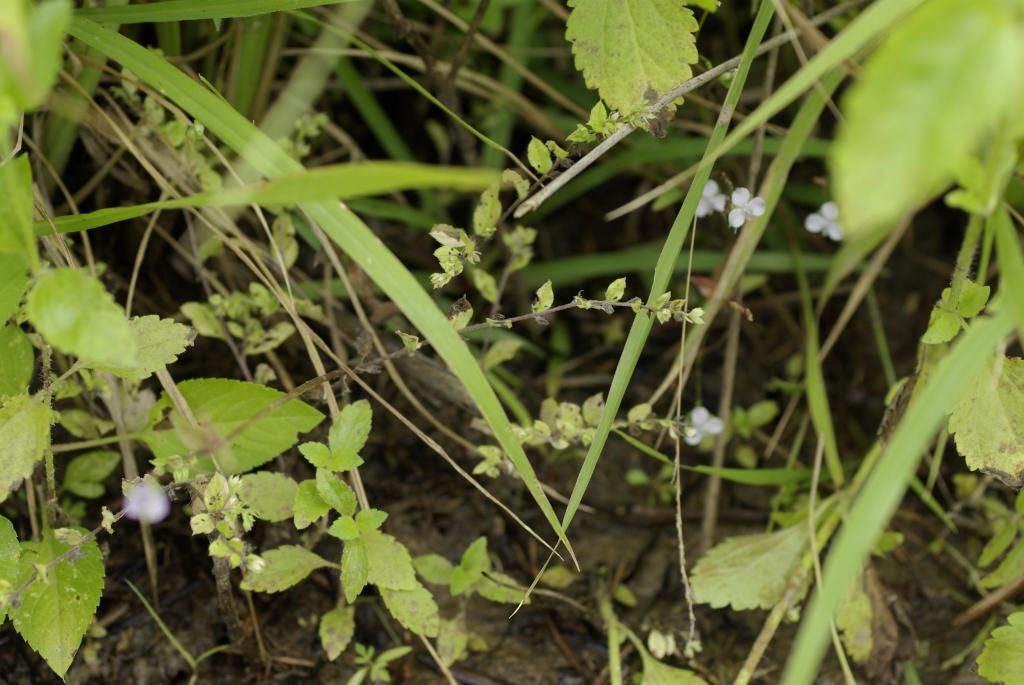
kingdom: Plantae
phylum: Tracheophyta
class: Magnoliopsida
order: Boraginales
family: Boraginaceae
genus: Bothriospermum
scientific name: Bothriospermum zeylanicum
